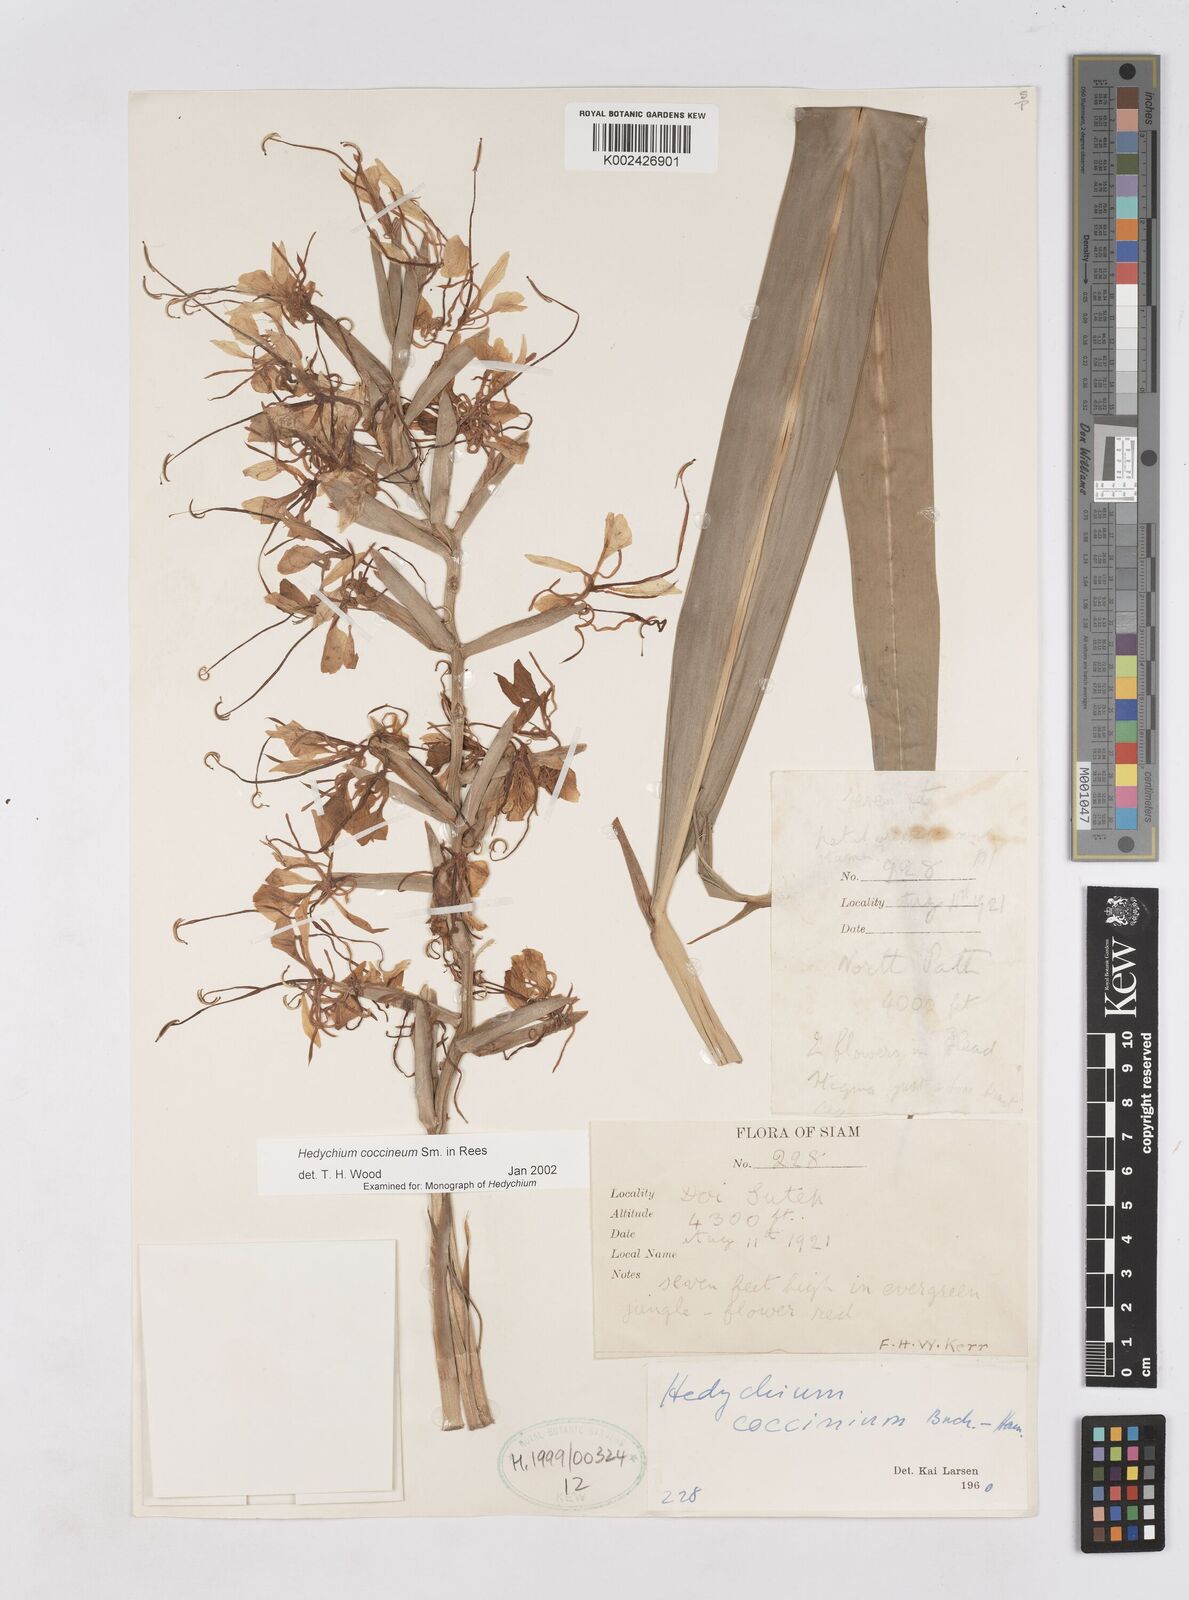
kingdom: Plantae
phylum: Tracheophyta
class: Liliopsida
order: Zingiberales
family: Zingiberaceae
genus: Hedychium
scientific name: Hedychium coccineum
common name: Red ginger-lily
